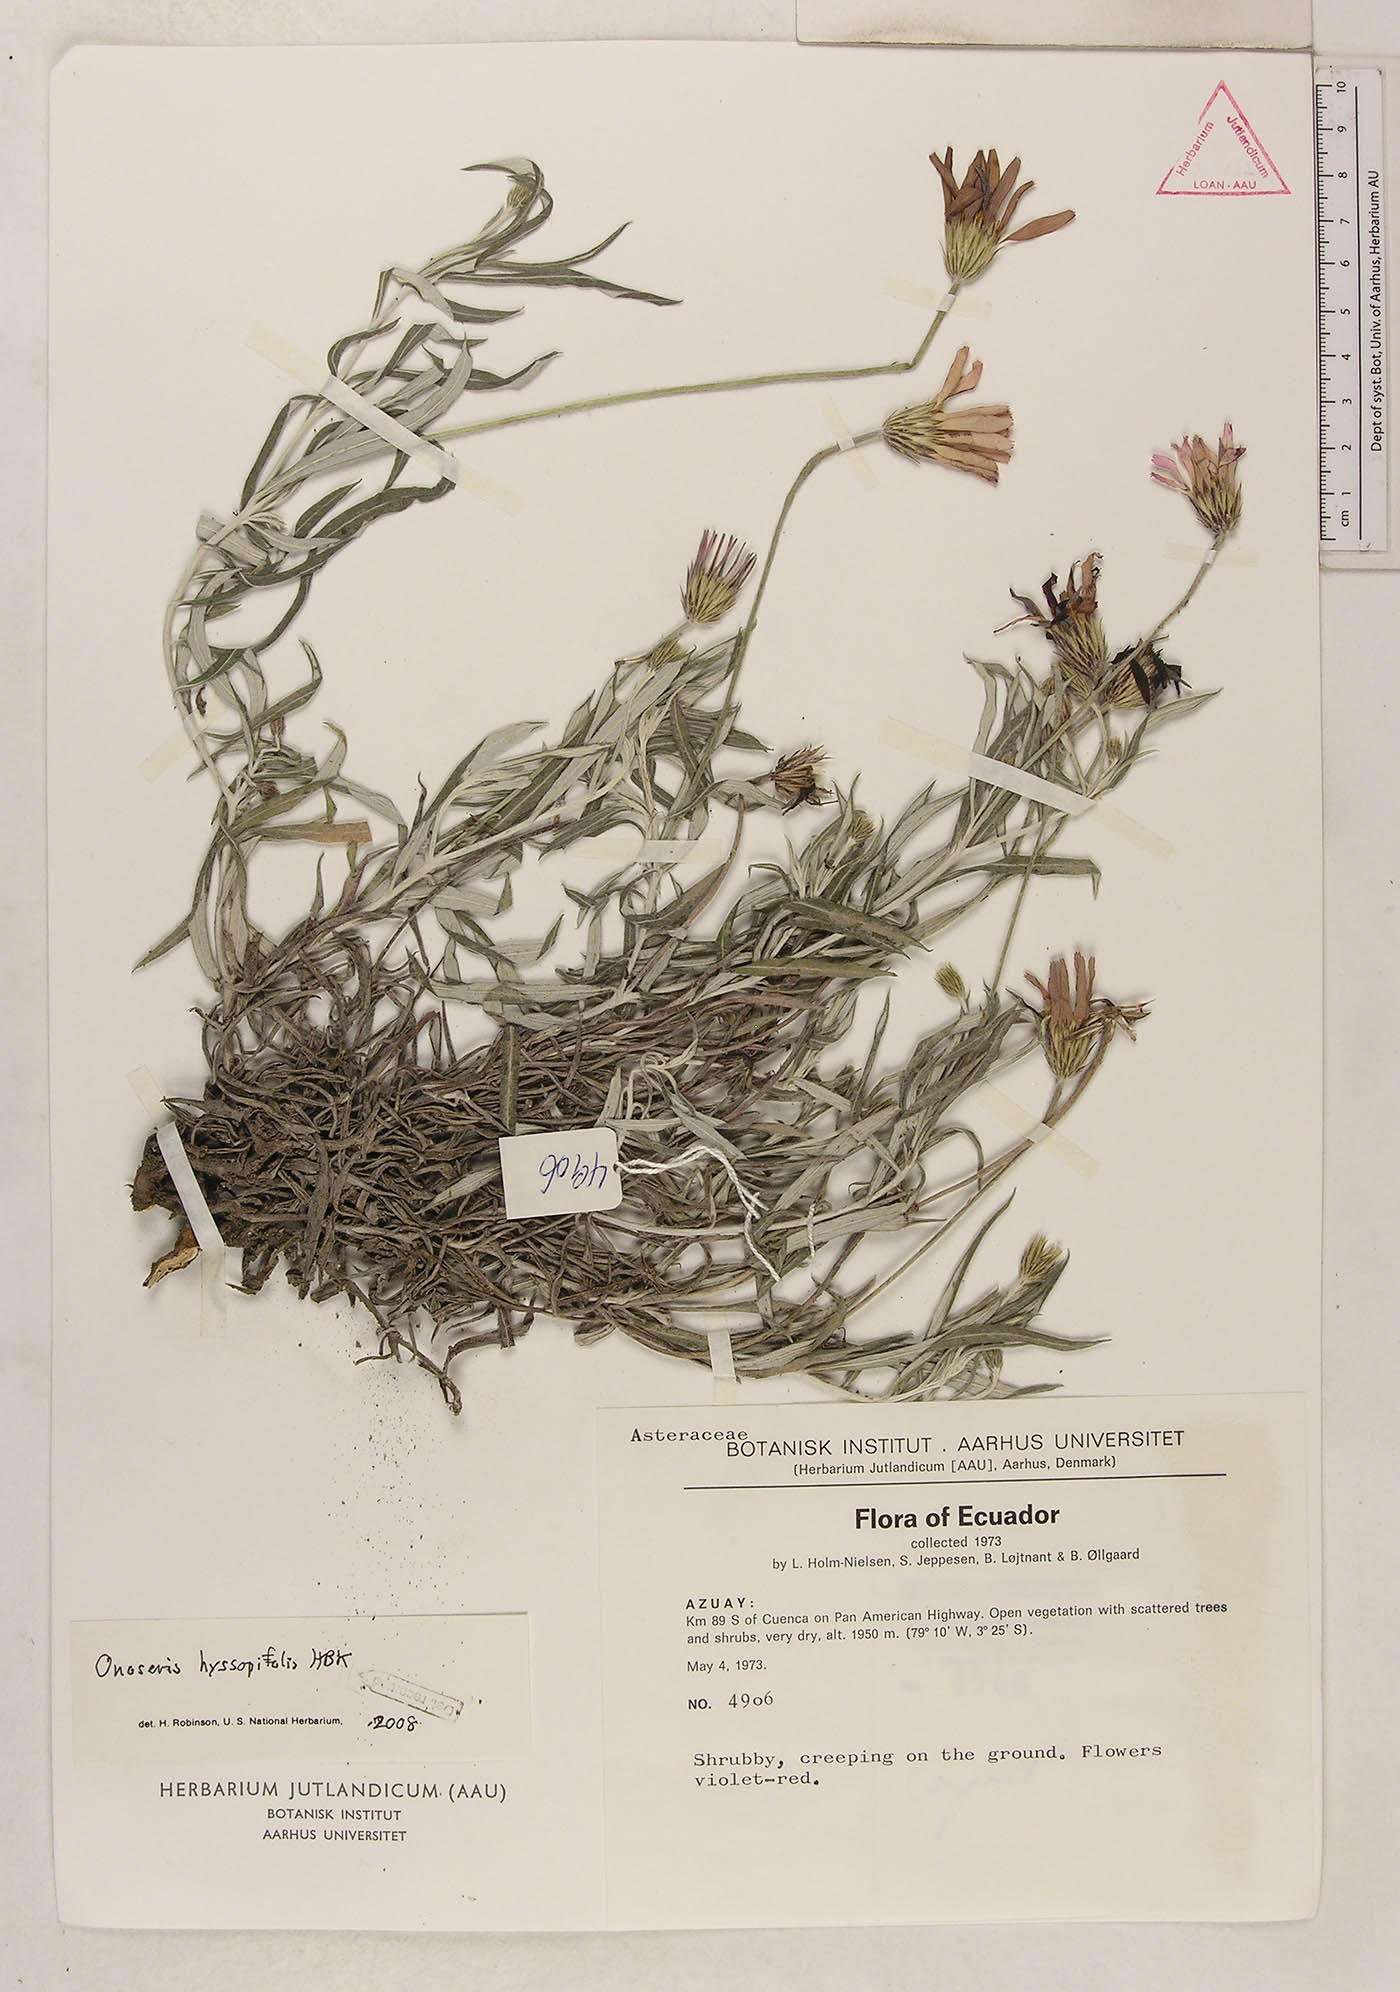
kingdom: Plantae
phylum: Tracheophyta
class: Magnoliopsida
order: Asterales
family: Asteraceae
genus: Onoseris
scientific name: Onoseris hyssopifolia
